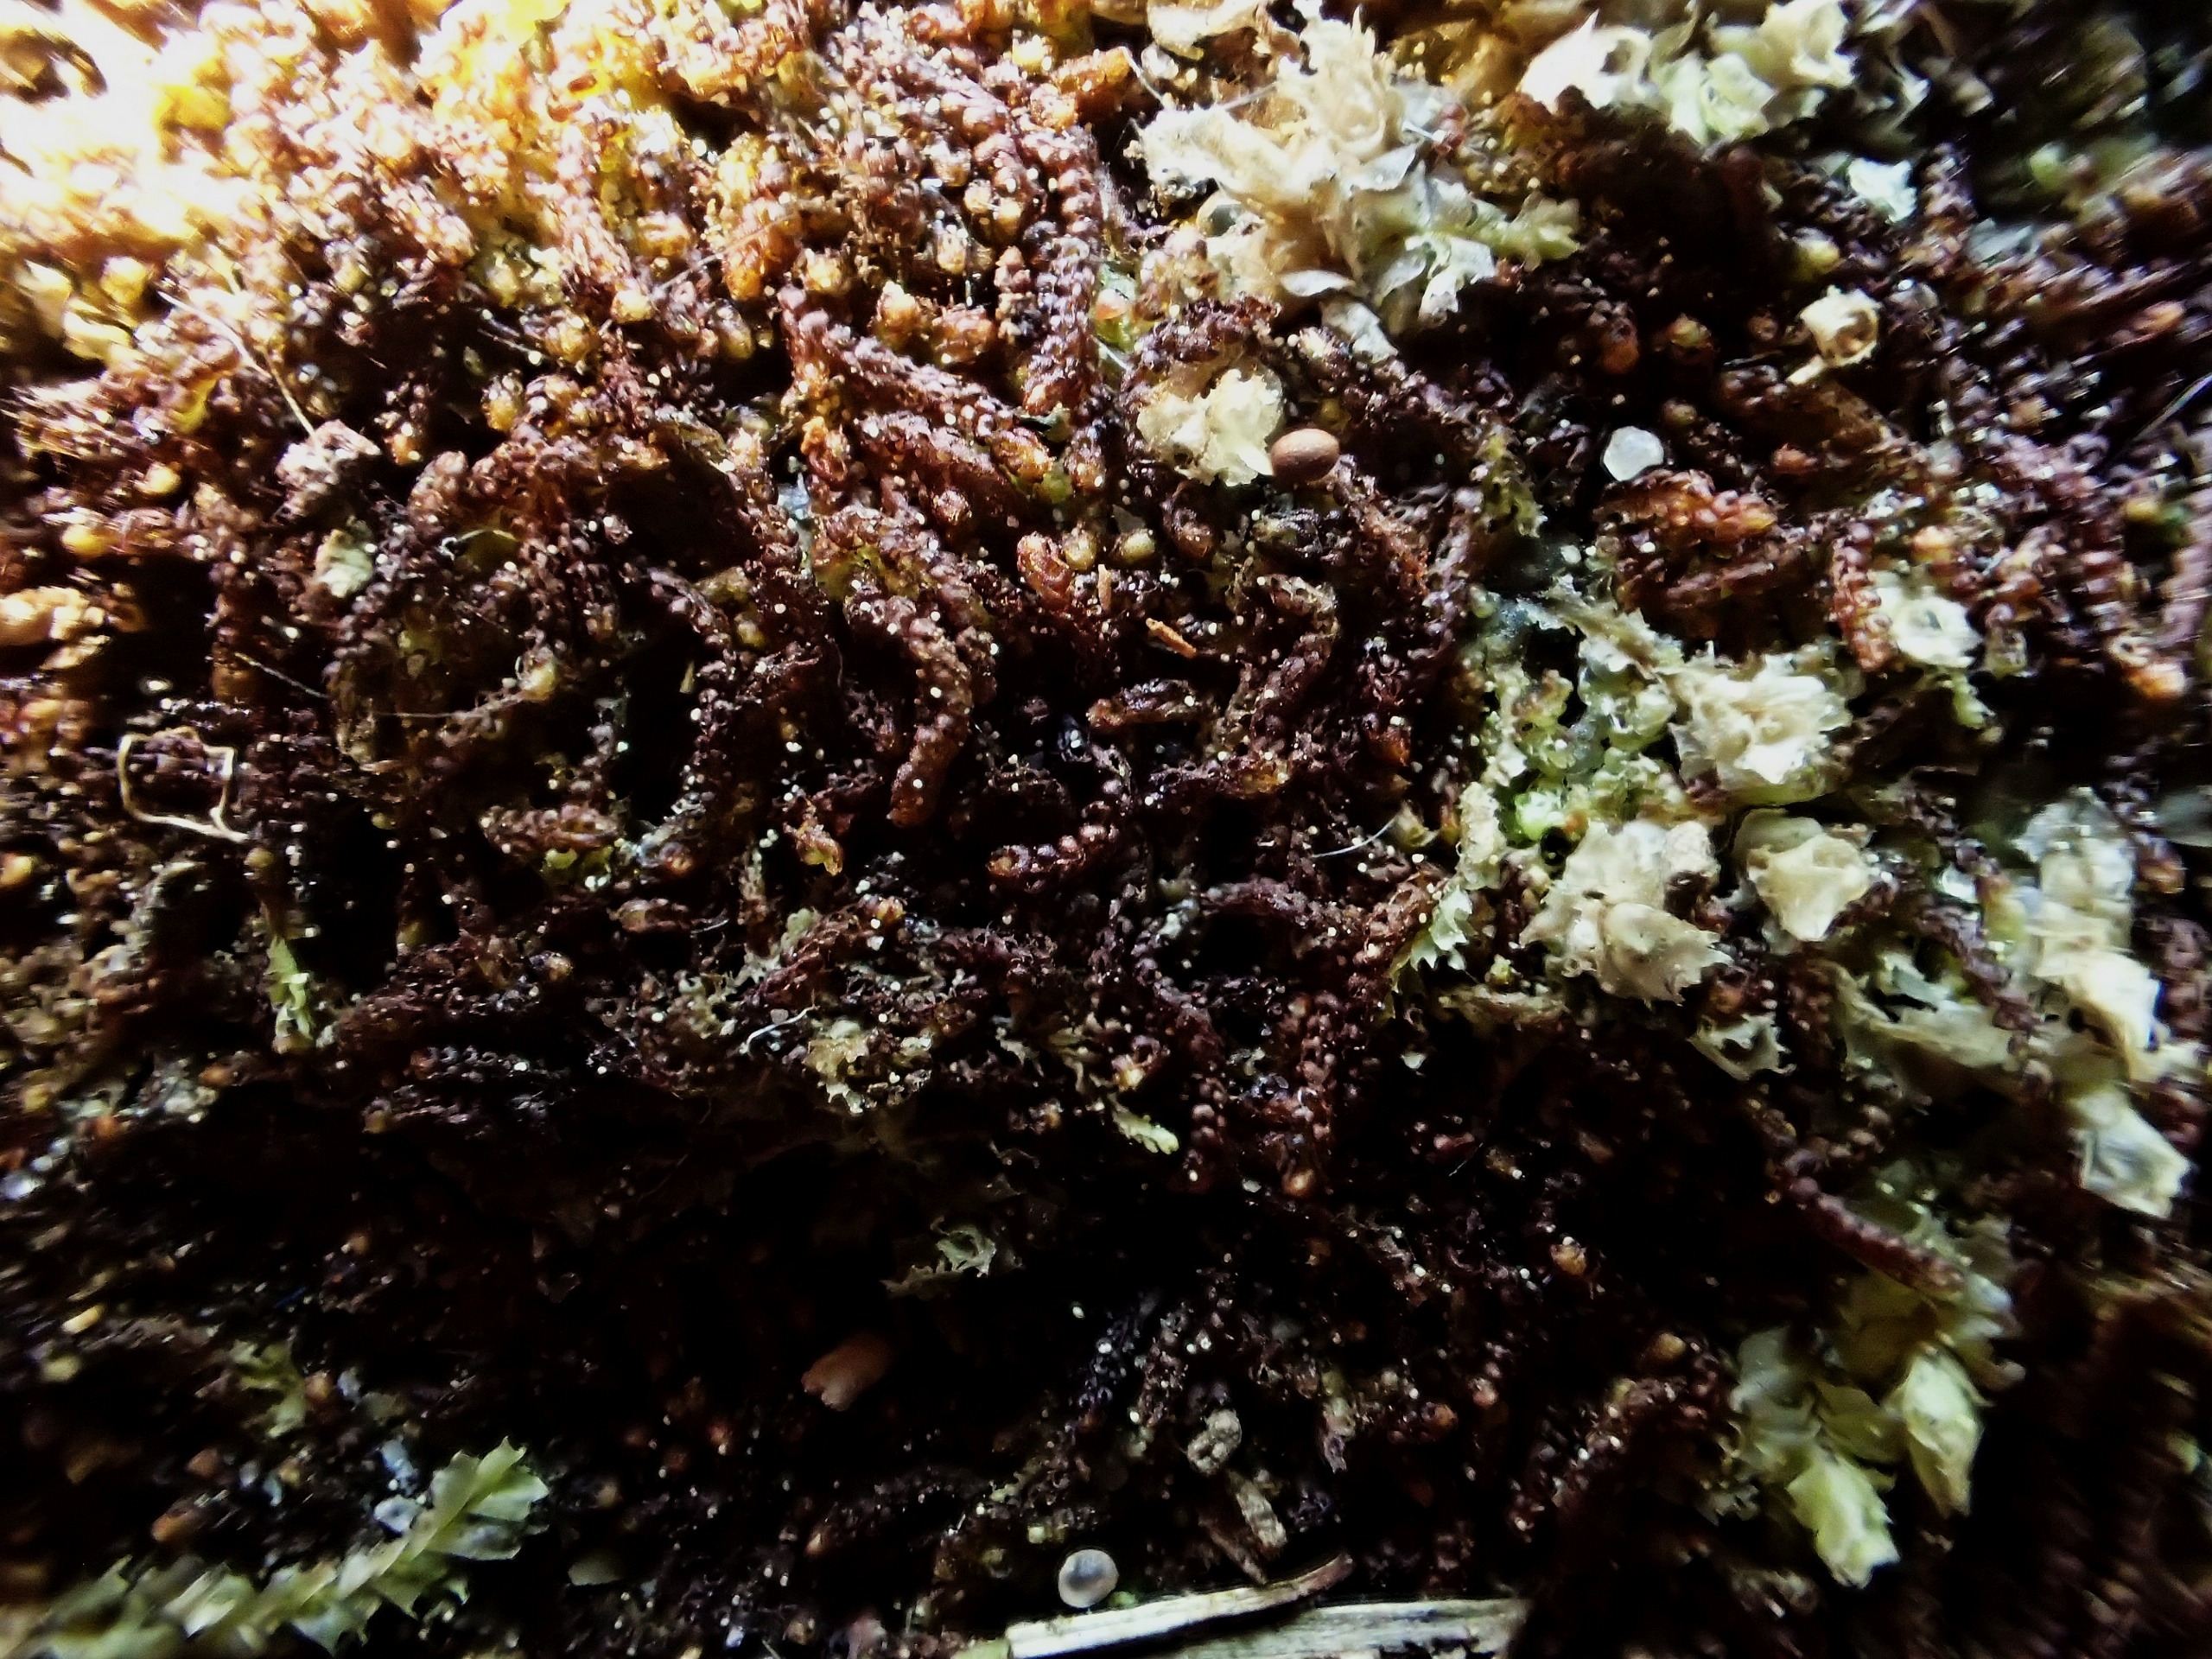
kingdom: Plantae
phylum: Marchantiophyta
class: Jungermanniopsida
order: Jungermanniales
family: Cephaloziaceae
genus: Nowellia
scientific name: Nowellia curvifolia
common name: Krumbladet stødmos
